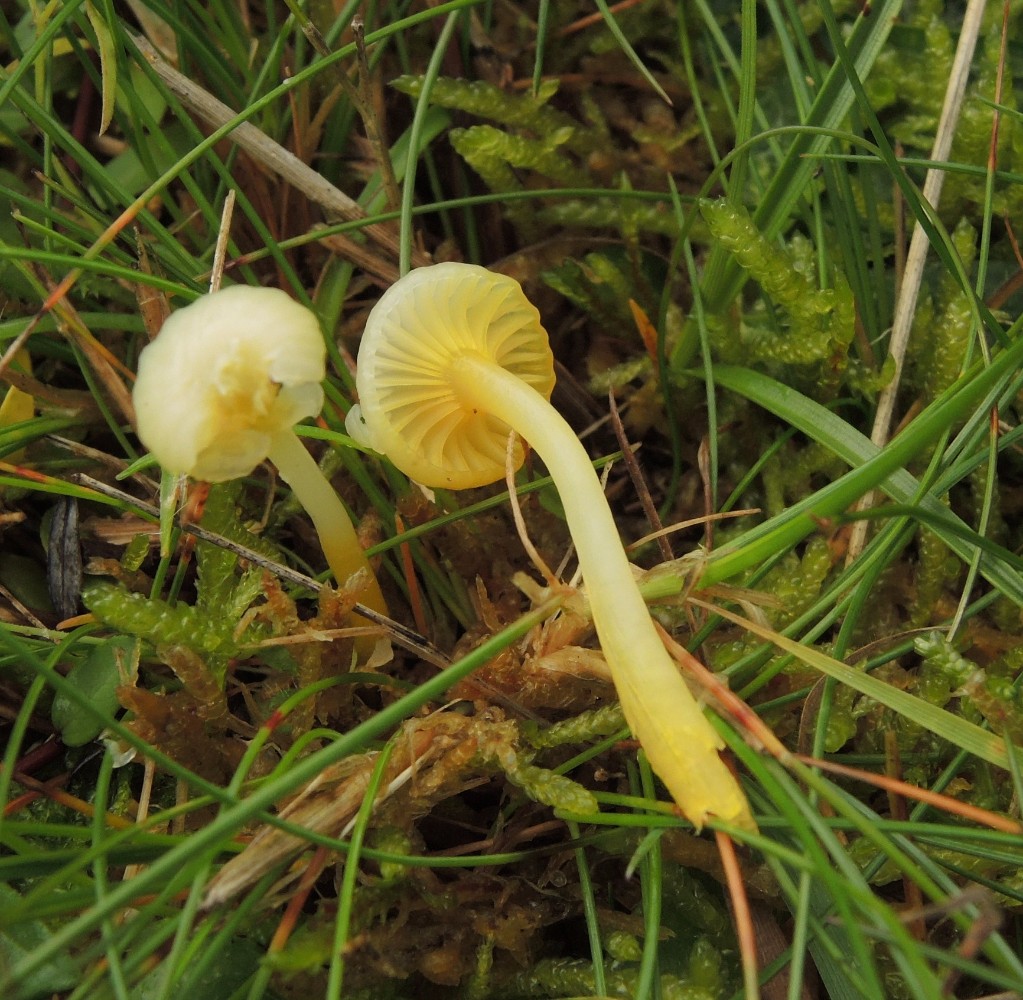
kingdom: Fungi
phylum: Basidiomycota
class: Agaricomycetes
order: Agaricales
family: Hygrophoraceae
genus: Gloioxanthomyces
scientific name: Gloioxanthomyces vitellinus
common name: kromgul vokshat
